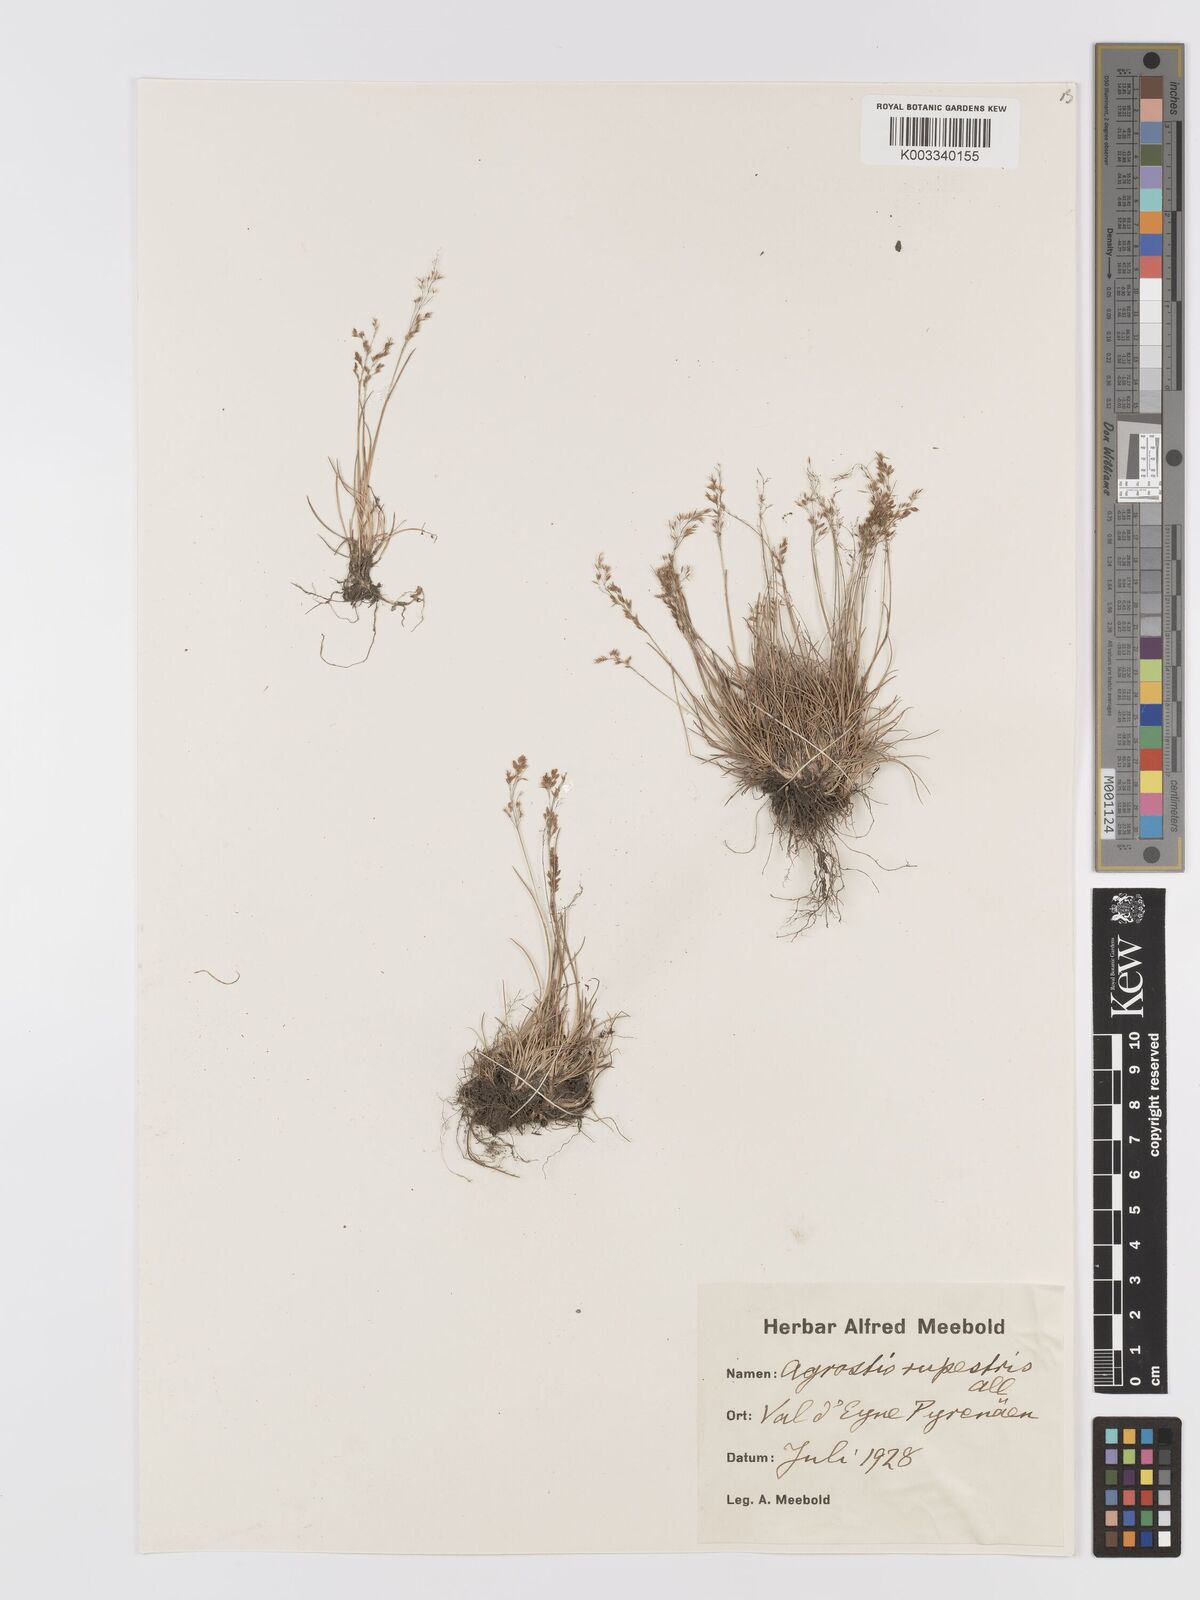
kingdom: Plantae
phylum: Tracheophyta
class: Liliopsida
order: Poales
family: Poaceae
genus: Agrostis
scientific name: Agrostis rupestris
